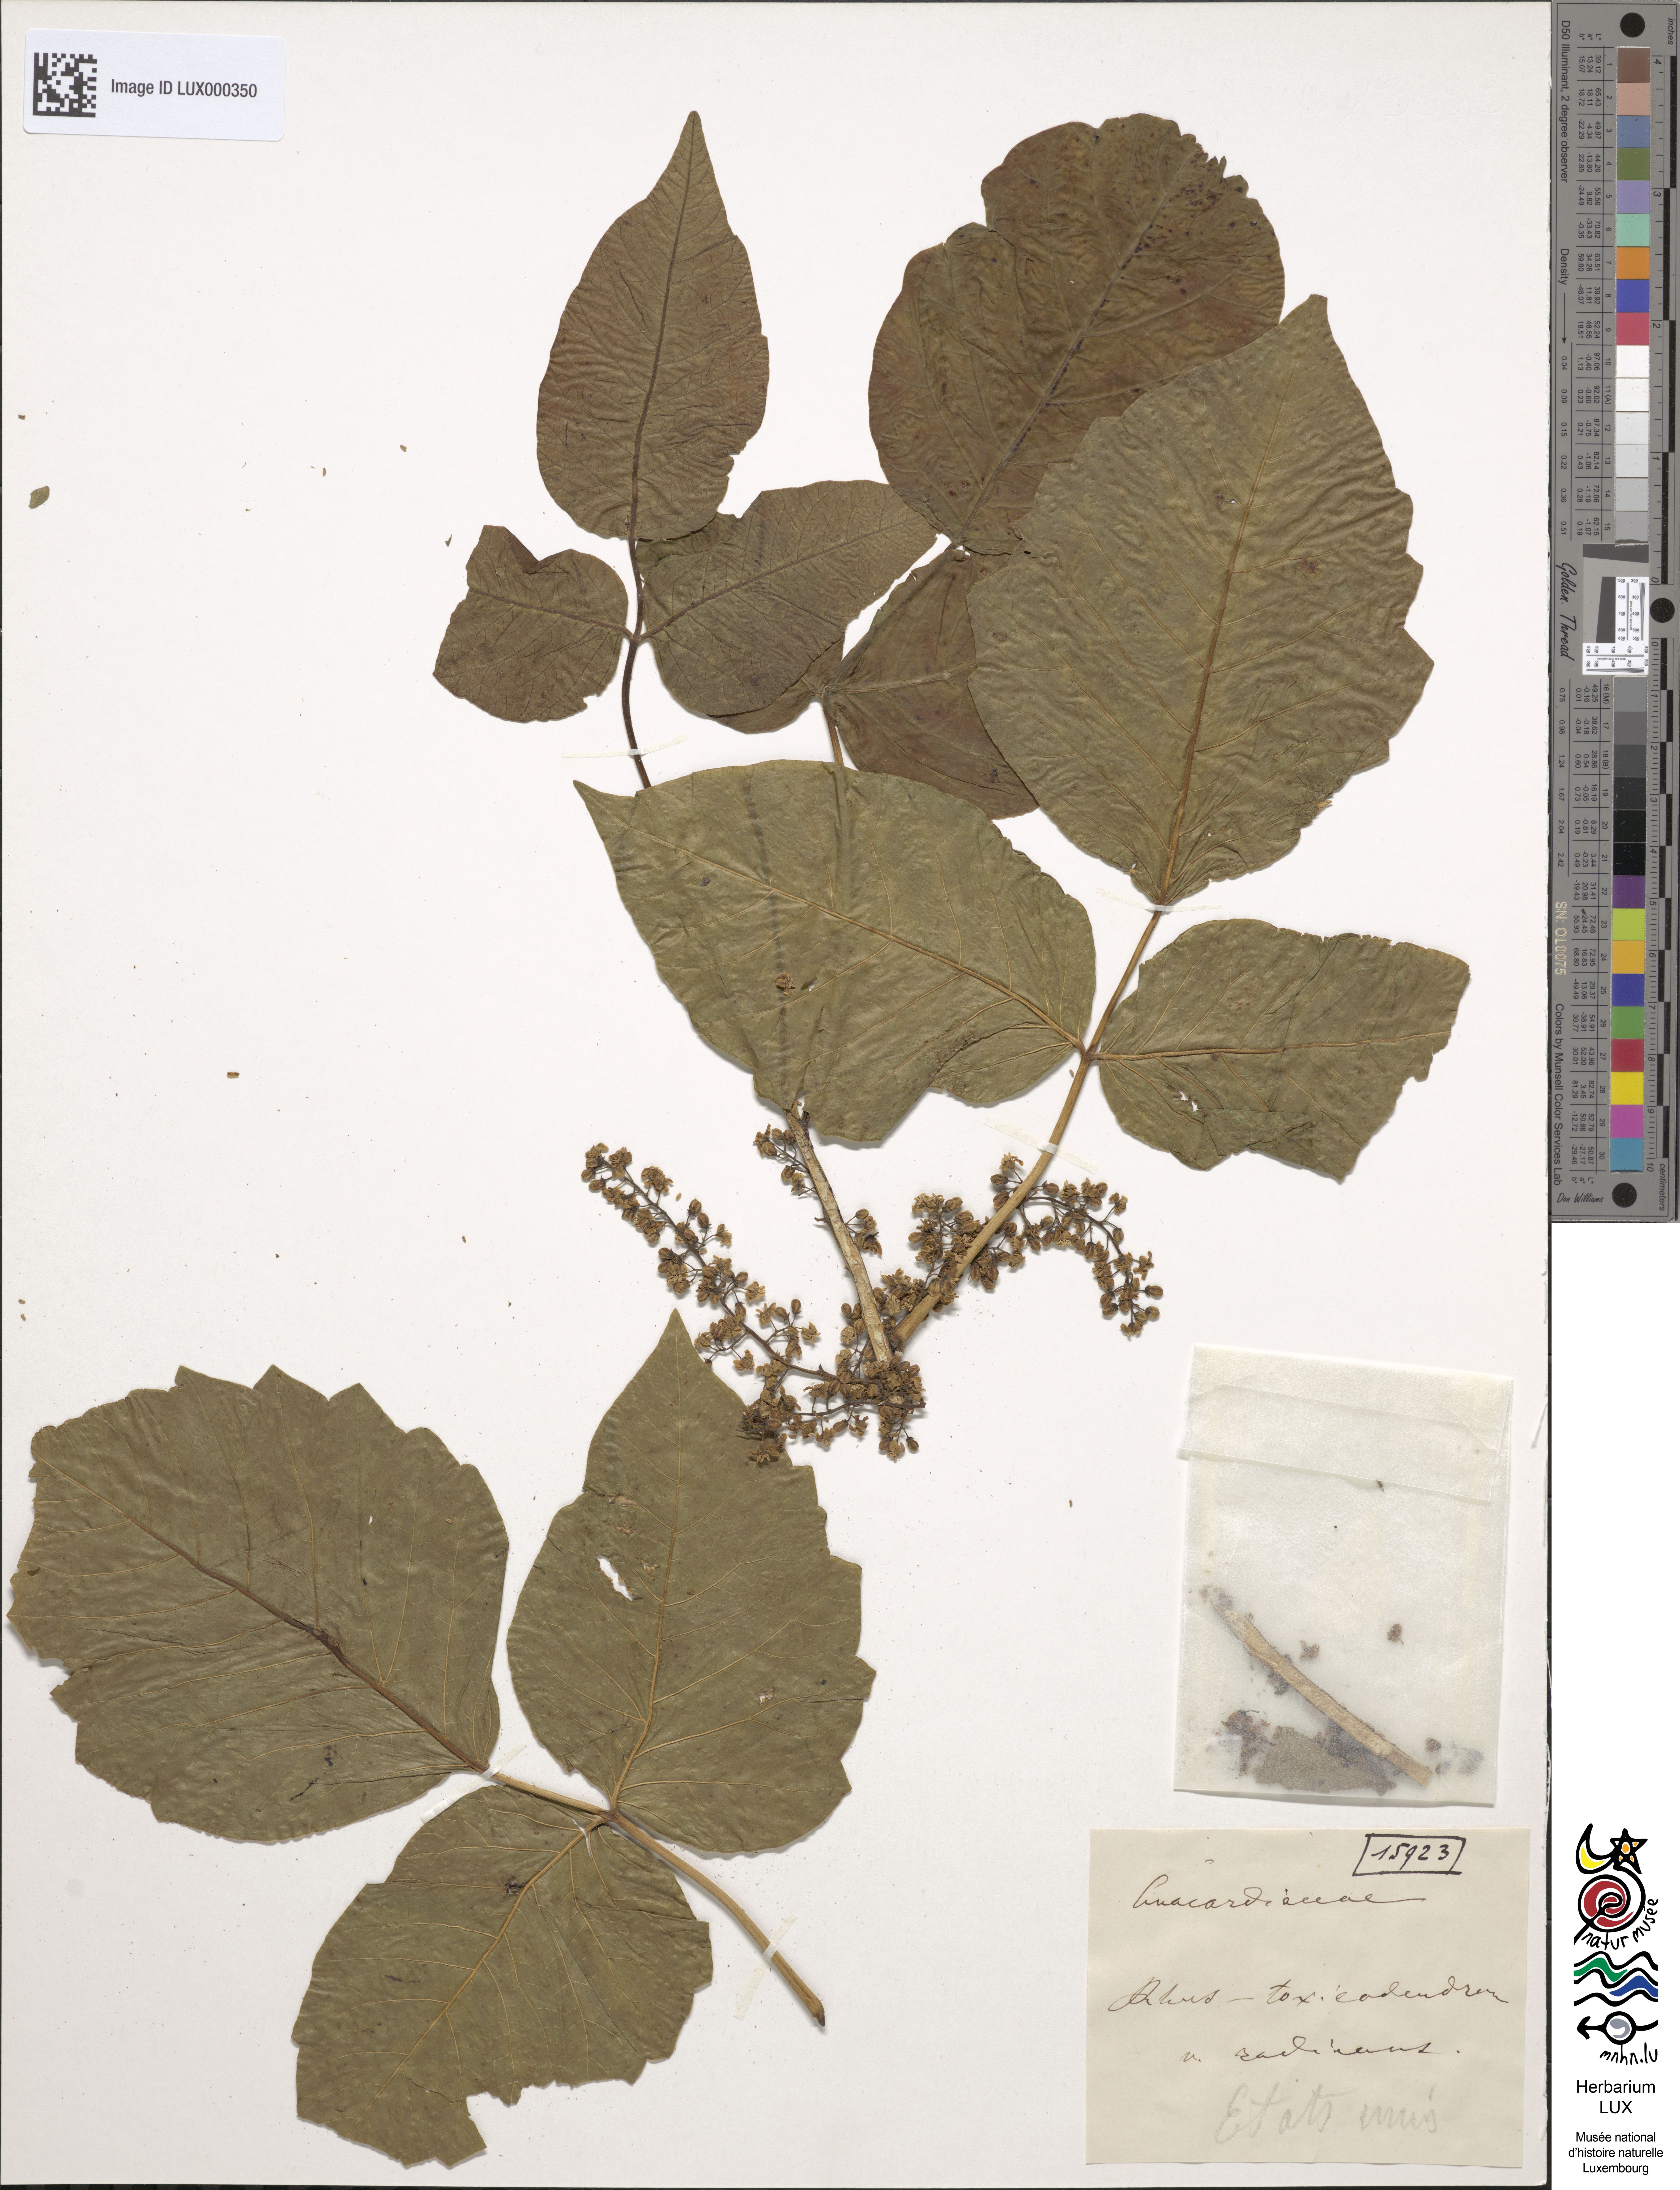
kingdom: Plantae
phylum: Tracheophyta
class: Magnoliopsida
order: Sapindales
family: Anacardiaceae
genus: Toxicodendron
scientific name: Toxicodendron radicans
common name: Poison ivy
